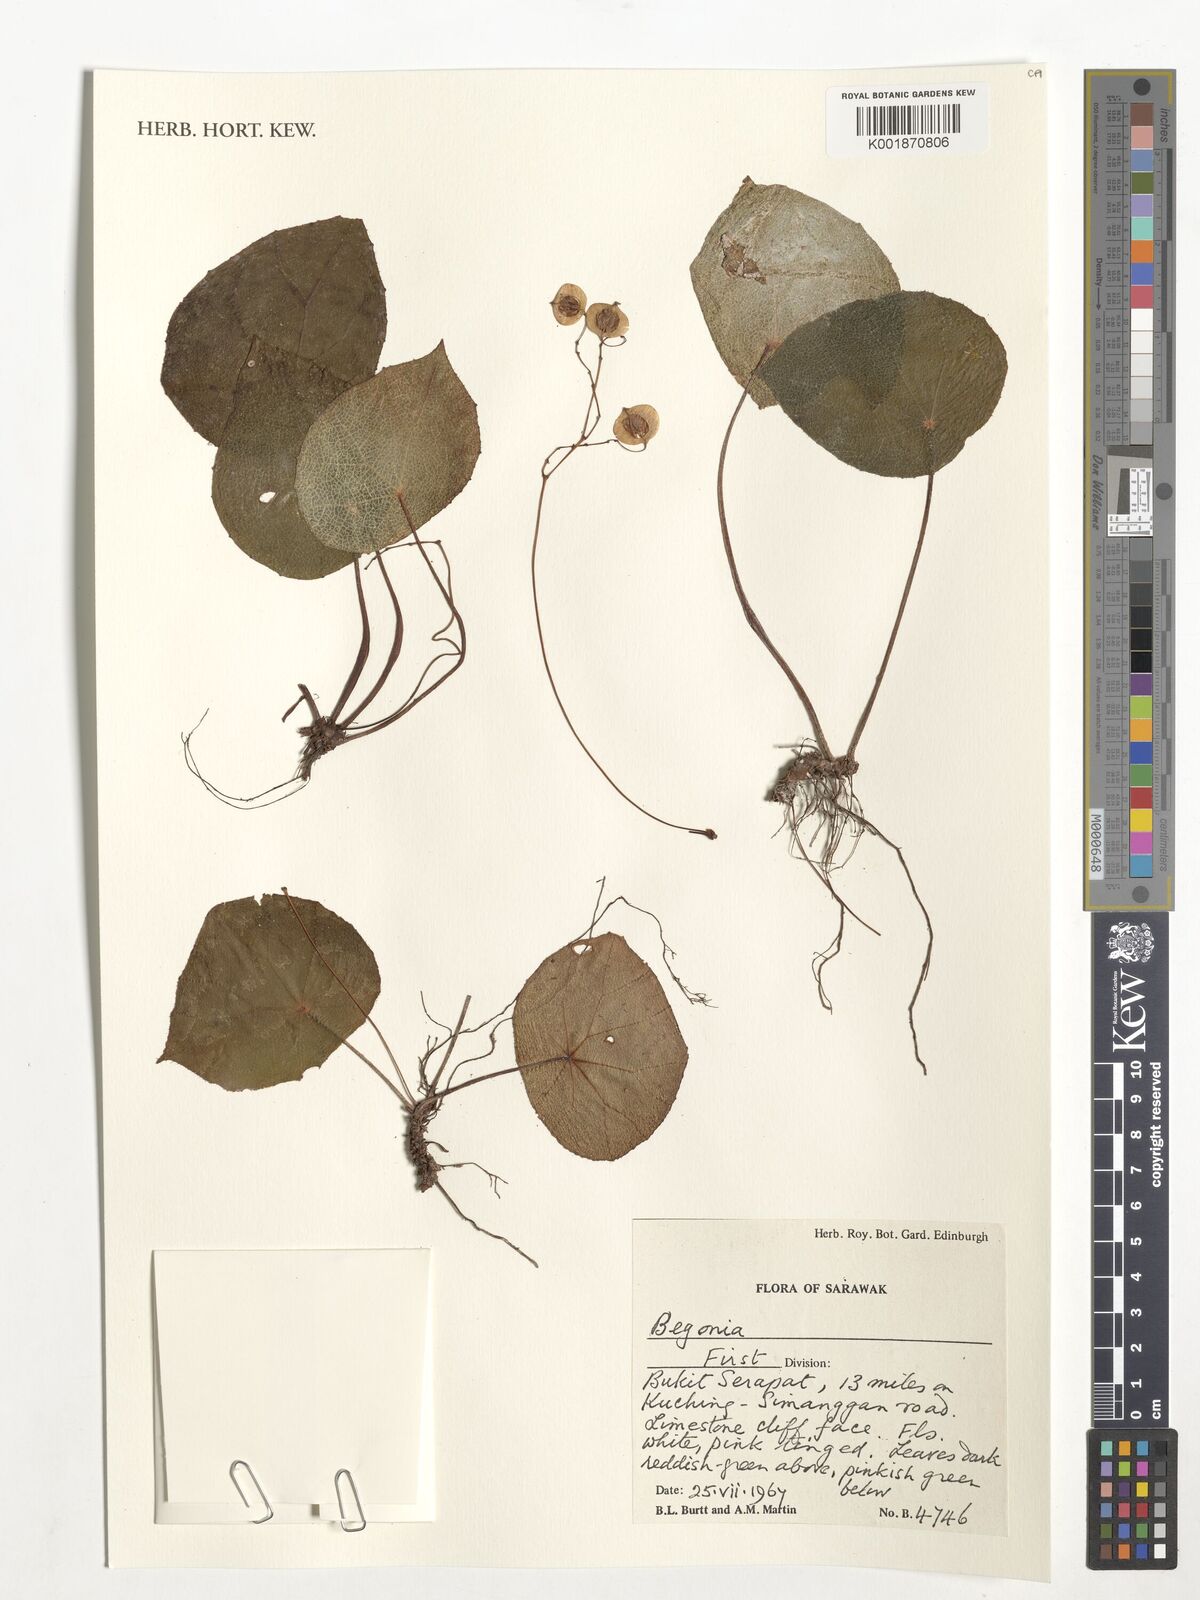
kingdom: Plantae
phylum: Tracheophyta
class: Magnoliopsida
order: Cucurbitales
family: Begoniaceae
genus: Begonia
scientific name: Begonia
